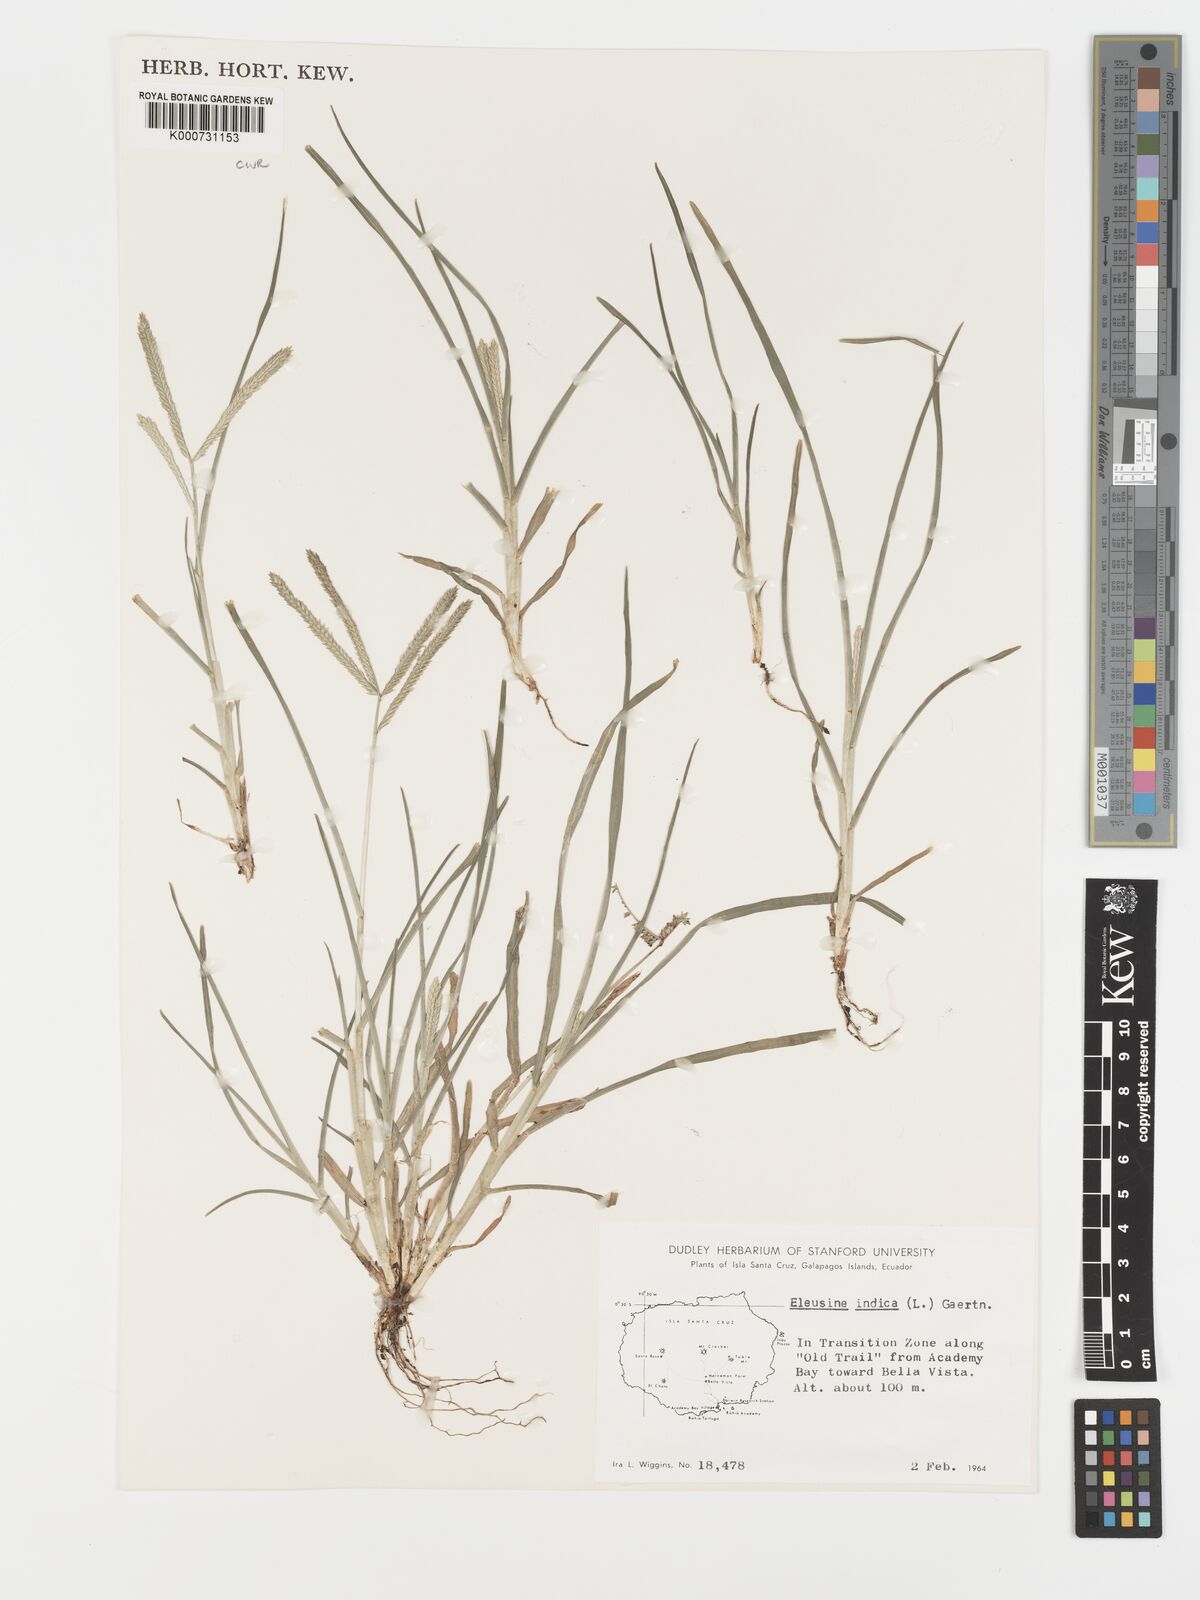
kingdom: Plantae
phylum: Tracheophyta
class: Liliopsida
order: Poales
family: Poaceae
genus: Eleusine
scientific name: Eleusine indica
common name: Yard-grass
